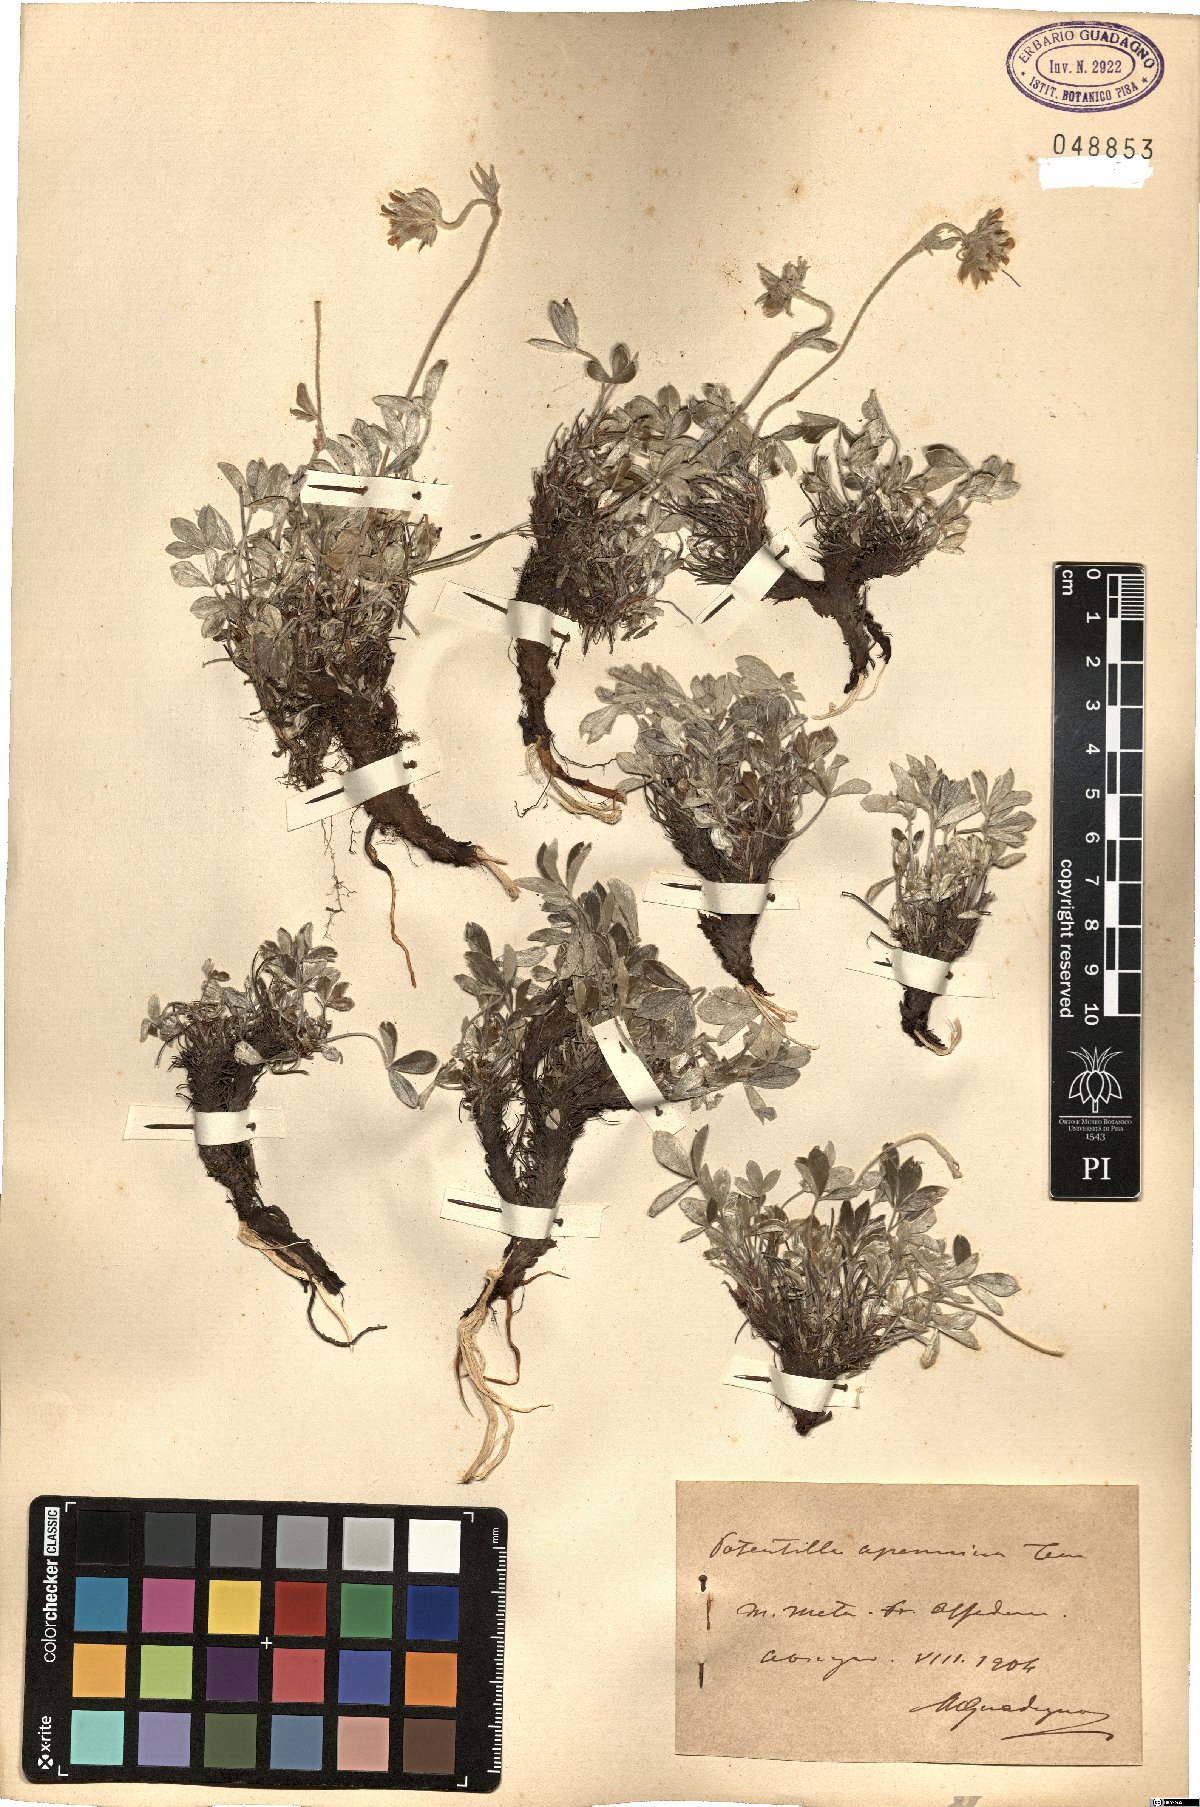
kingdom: Plantae
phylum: Tracheophyta
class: Magnoliopsida
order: Rosales
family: Rosaceae
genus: Potentilla
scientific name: Potentilla apennina
